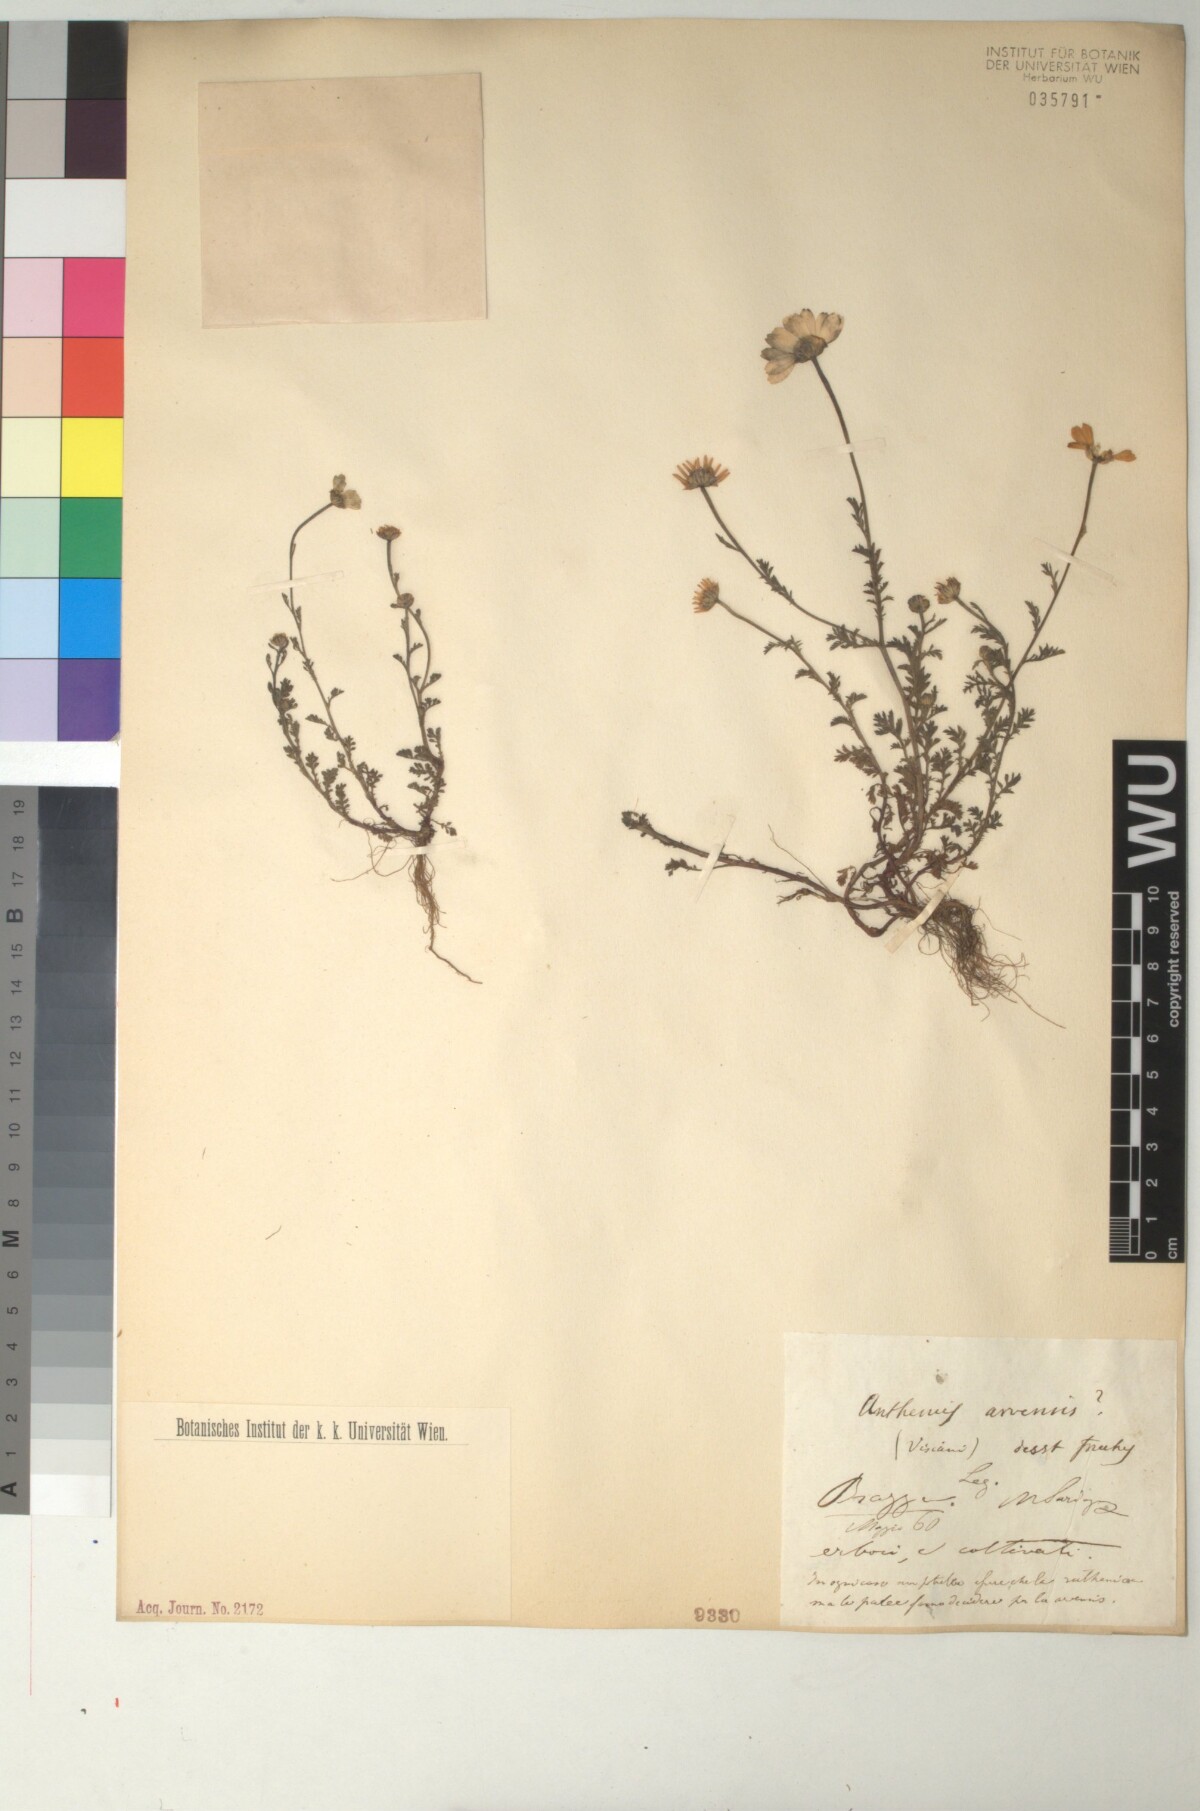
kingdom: Plantae
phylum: Tracheophyta
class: Magnoliopsida
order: Asterales
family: Asteraceae
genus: Anthemis
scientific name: Anthemis arvensis
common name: Corn chamomile
